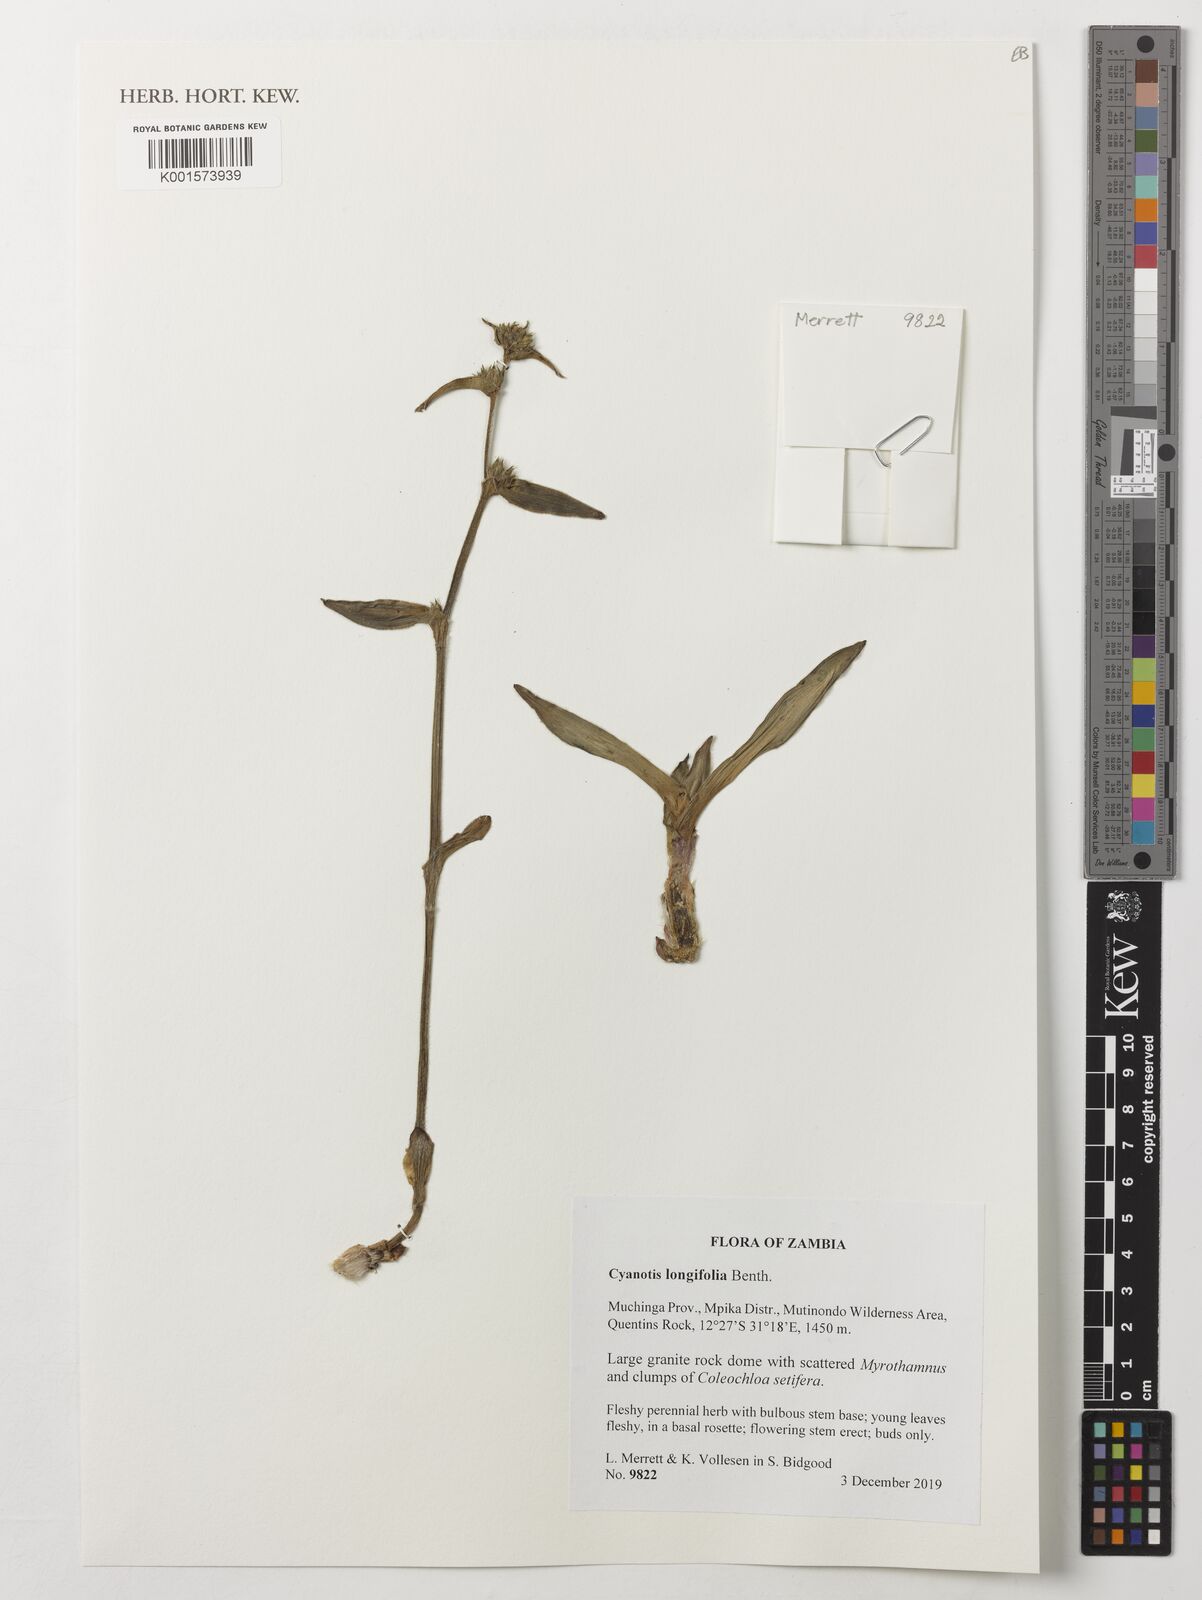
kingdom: Plantae
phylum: Tracheophyta
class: Liliopsida
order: Commelinales
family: Commelinaceae
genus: Cyanotis
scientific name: Cyanotis longifolia
